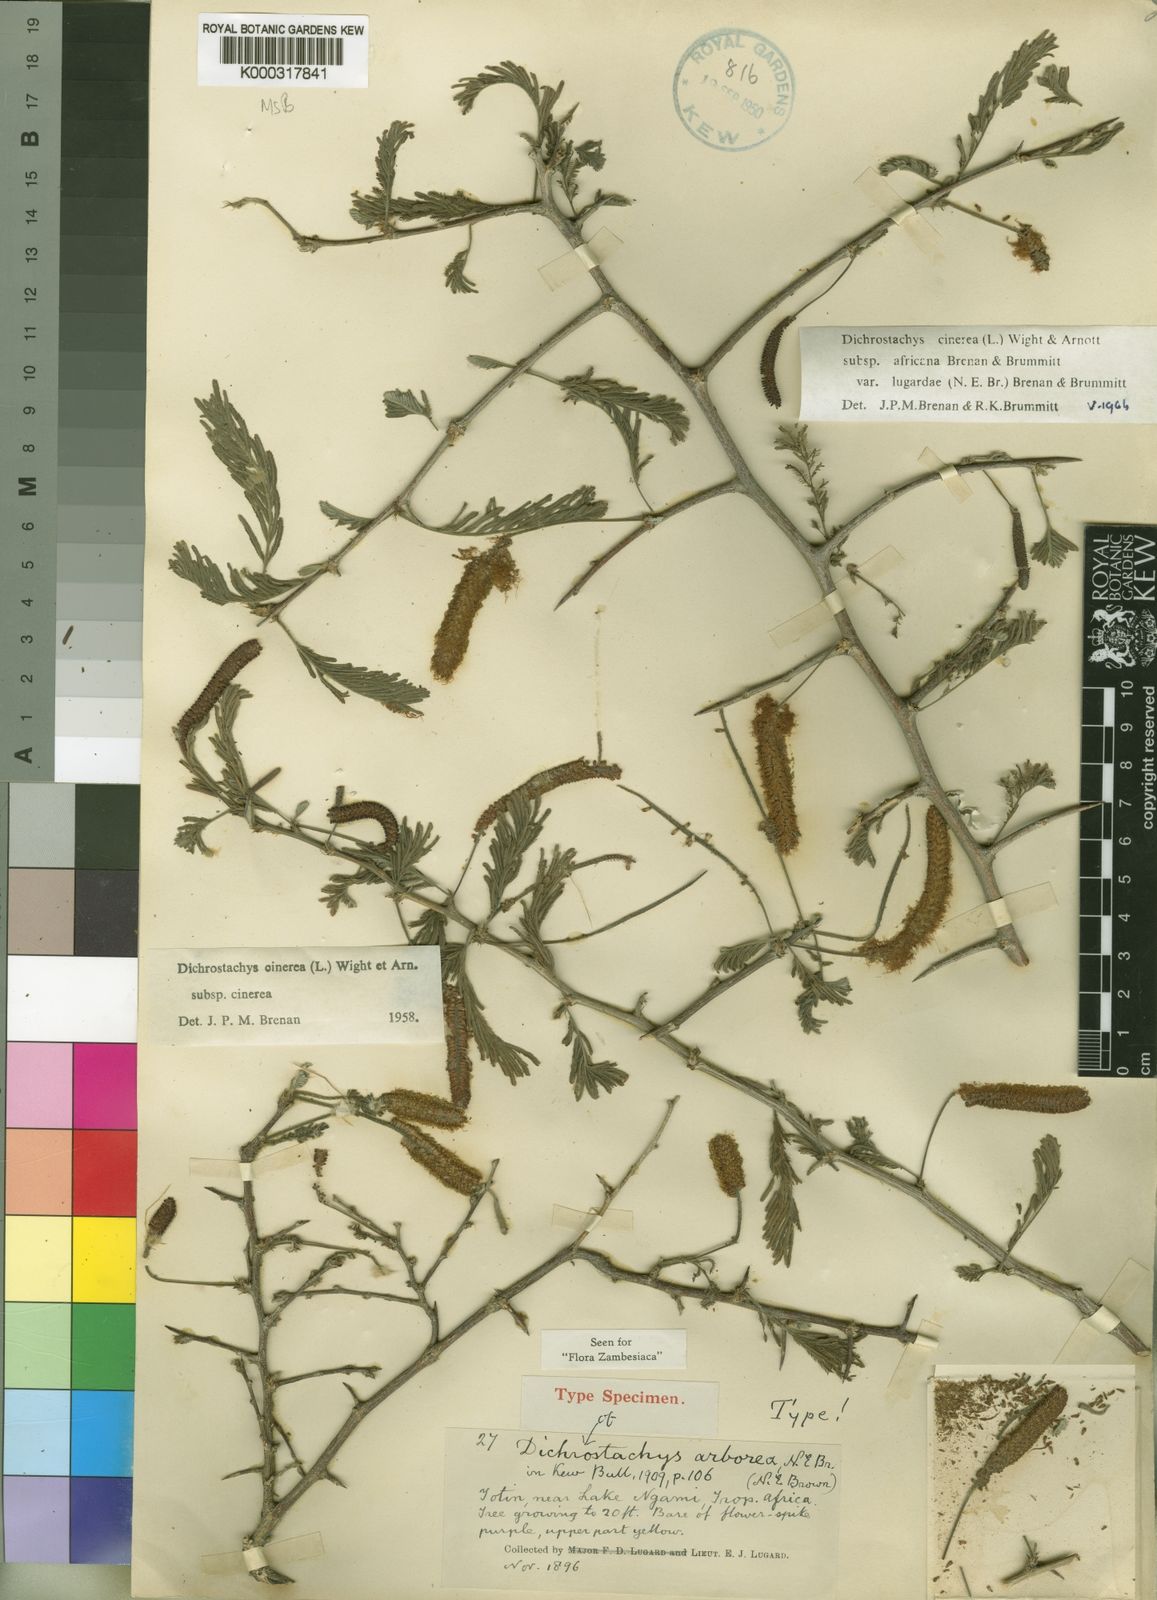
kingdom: Plantae
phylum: Tracheophyta
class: Magnoliopsida
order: Fabales
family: Fabaceae
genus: Dichrostachys
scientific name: Dichrostachys cinerea
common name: Sicklebush
